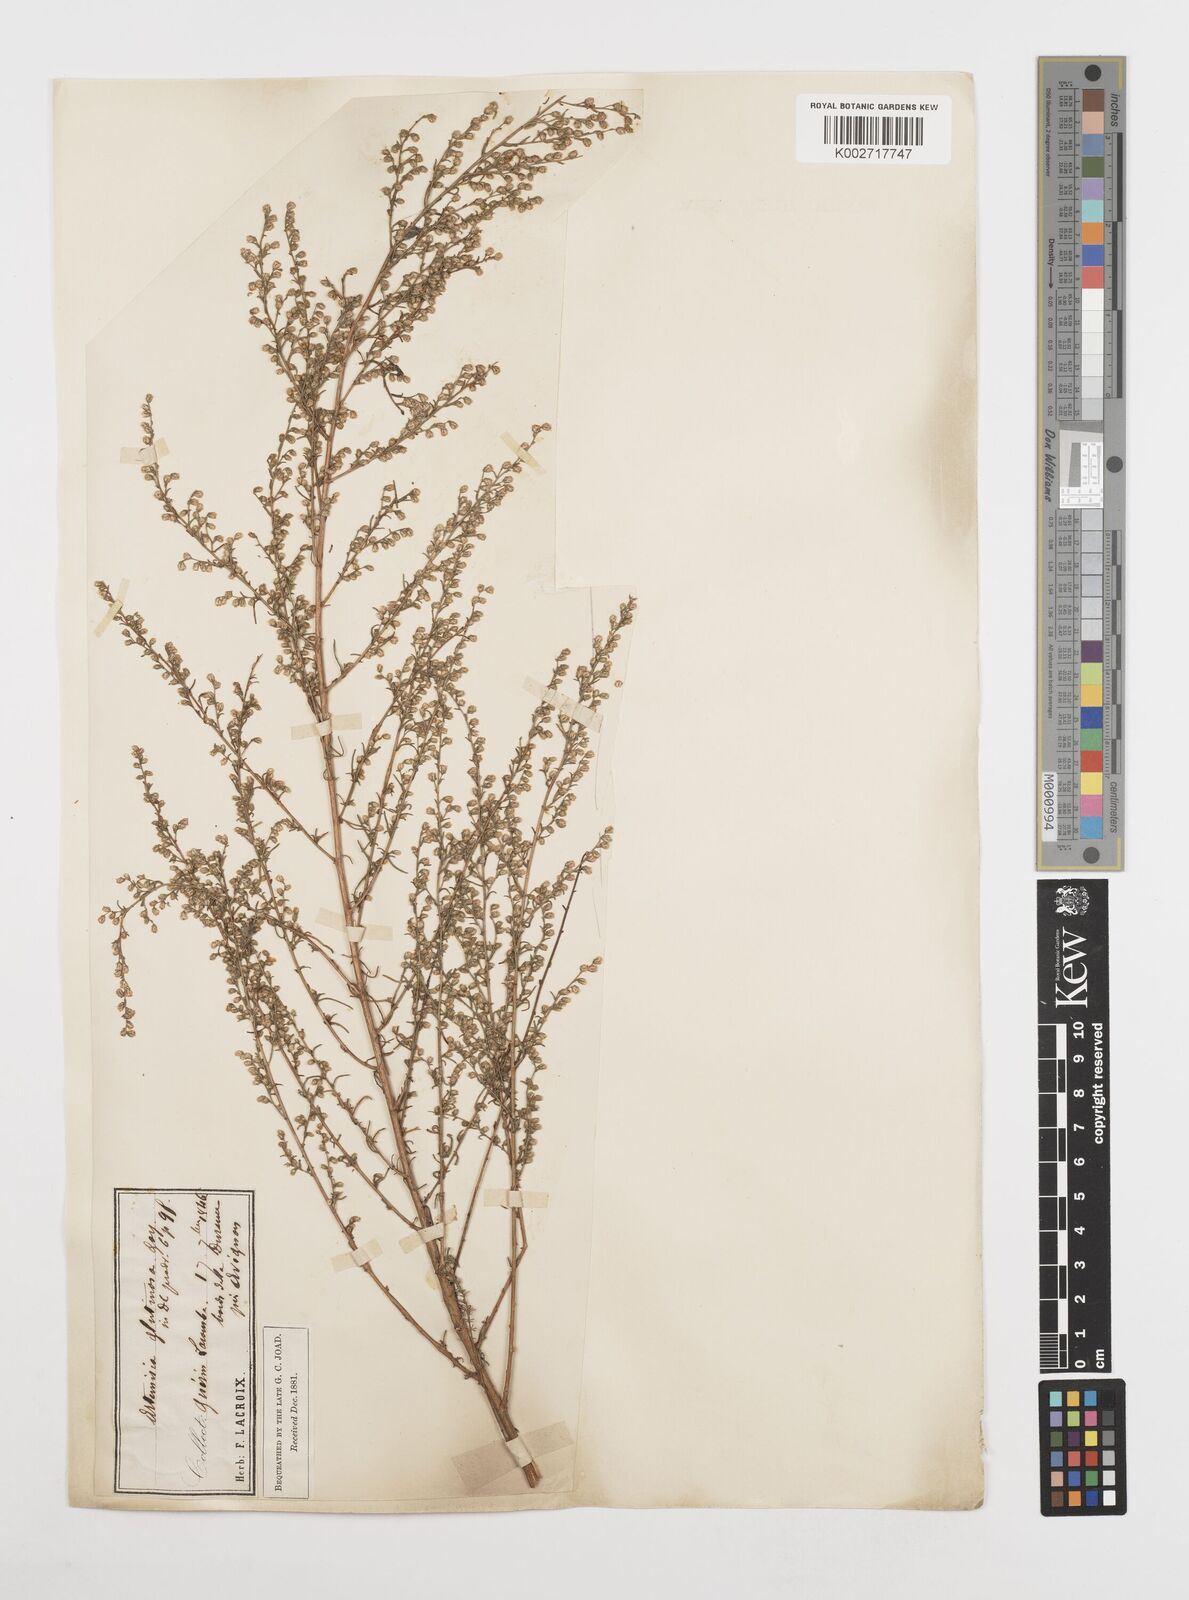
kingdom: Plantae
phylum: Tracheophyta
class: Magnoliopsida
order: Asterales
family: Asteraceae
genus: Artemisia
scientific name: Artemisia campestris
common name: Field wormwood
